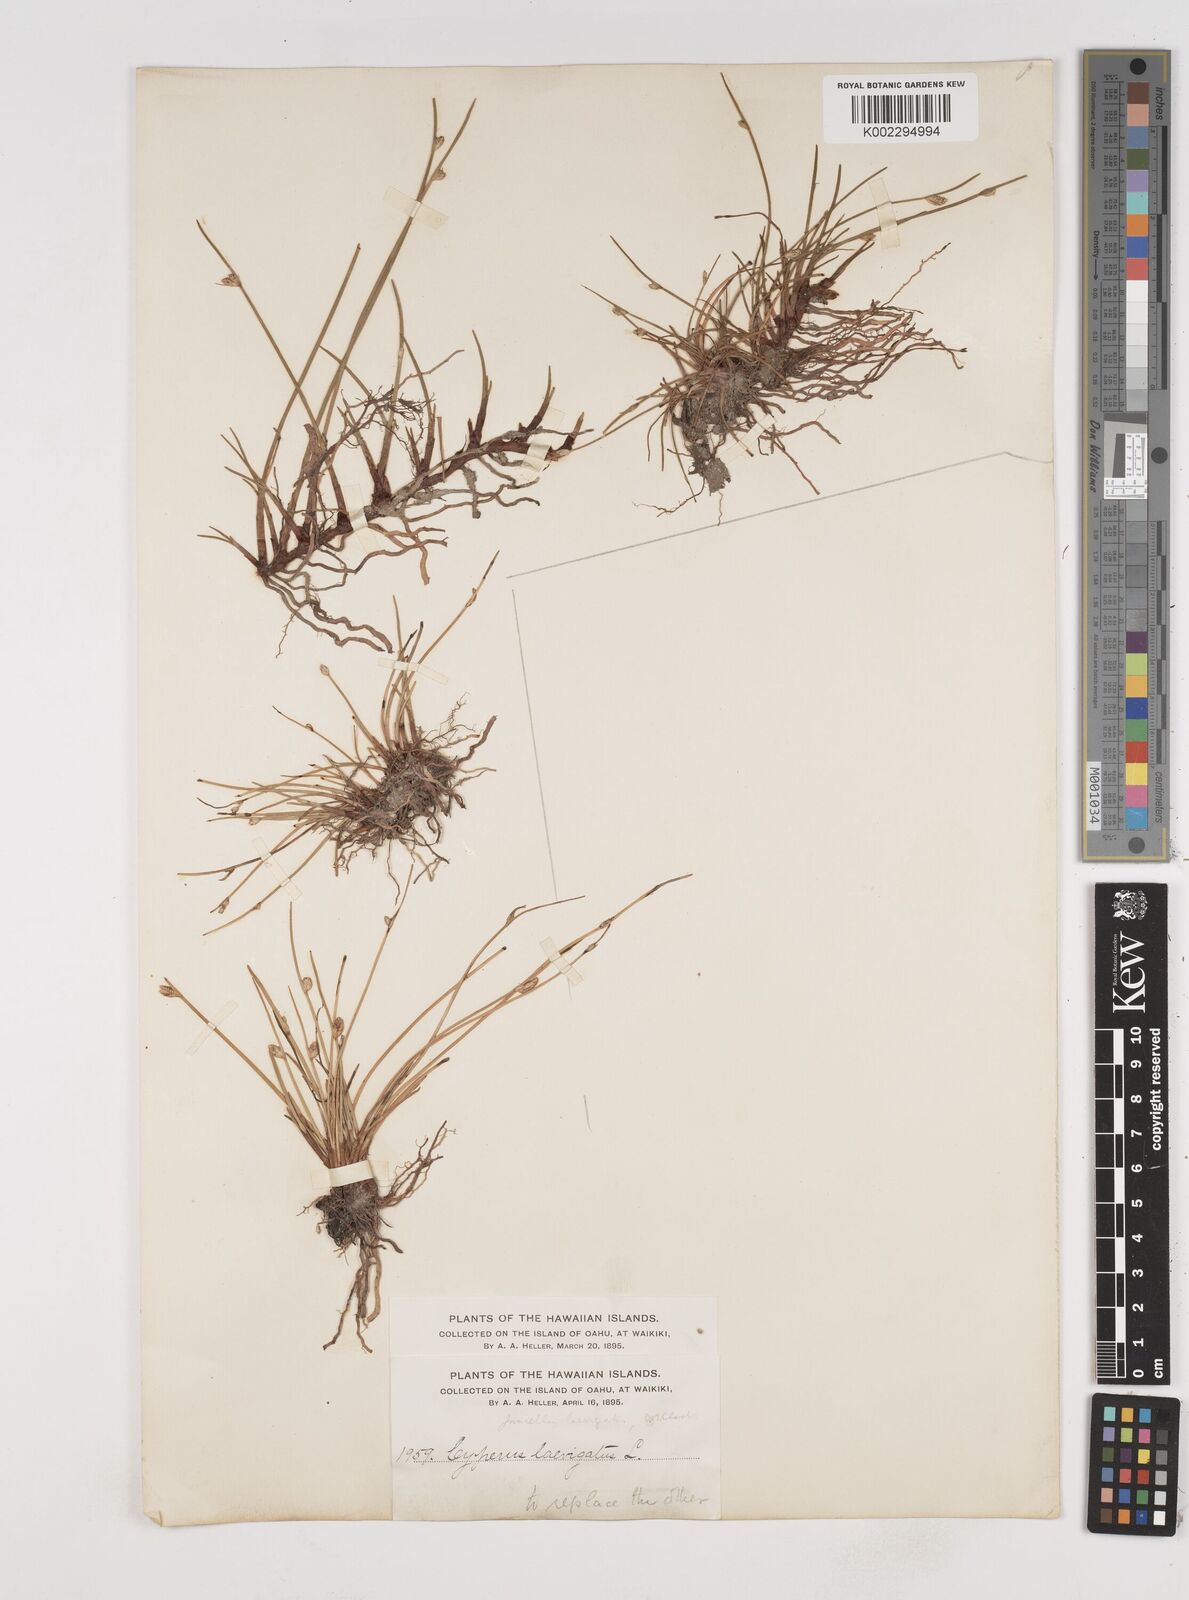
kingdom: Plantae
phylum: Tracheophyta
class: Liliopsida
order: Poales
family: Cyperaceae
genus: Cyperus
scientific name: Cyperus laevigatus
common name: Smooth flat sedge
